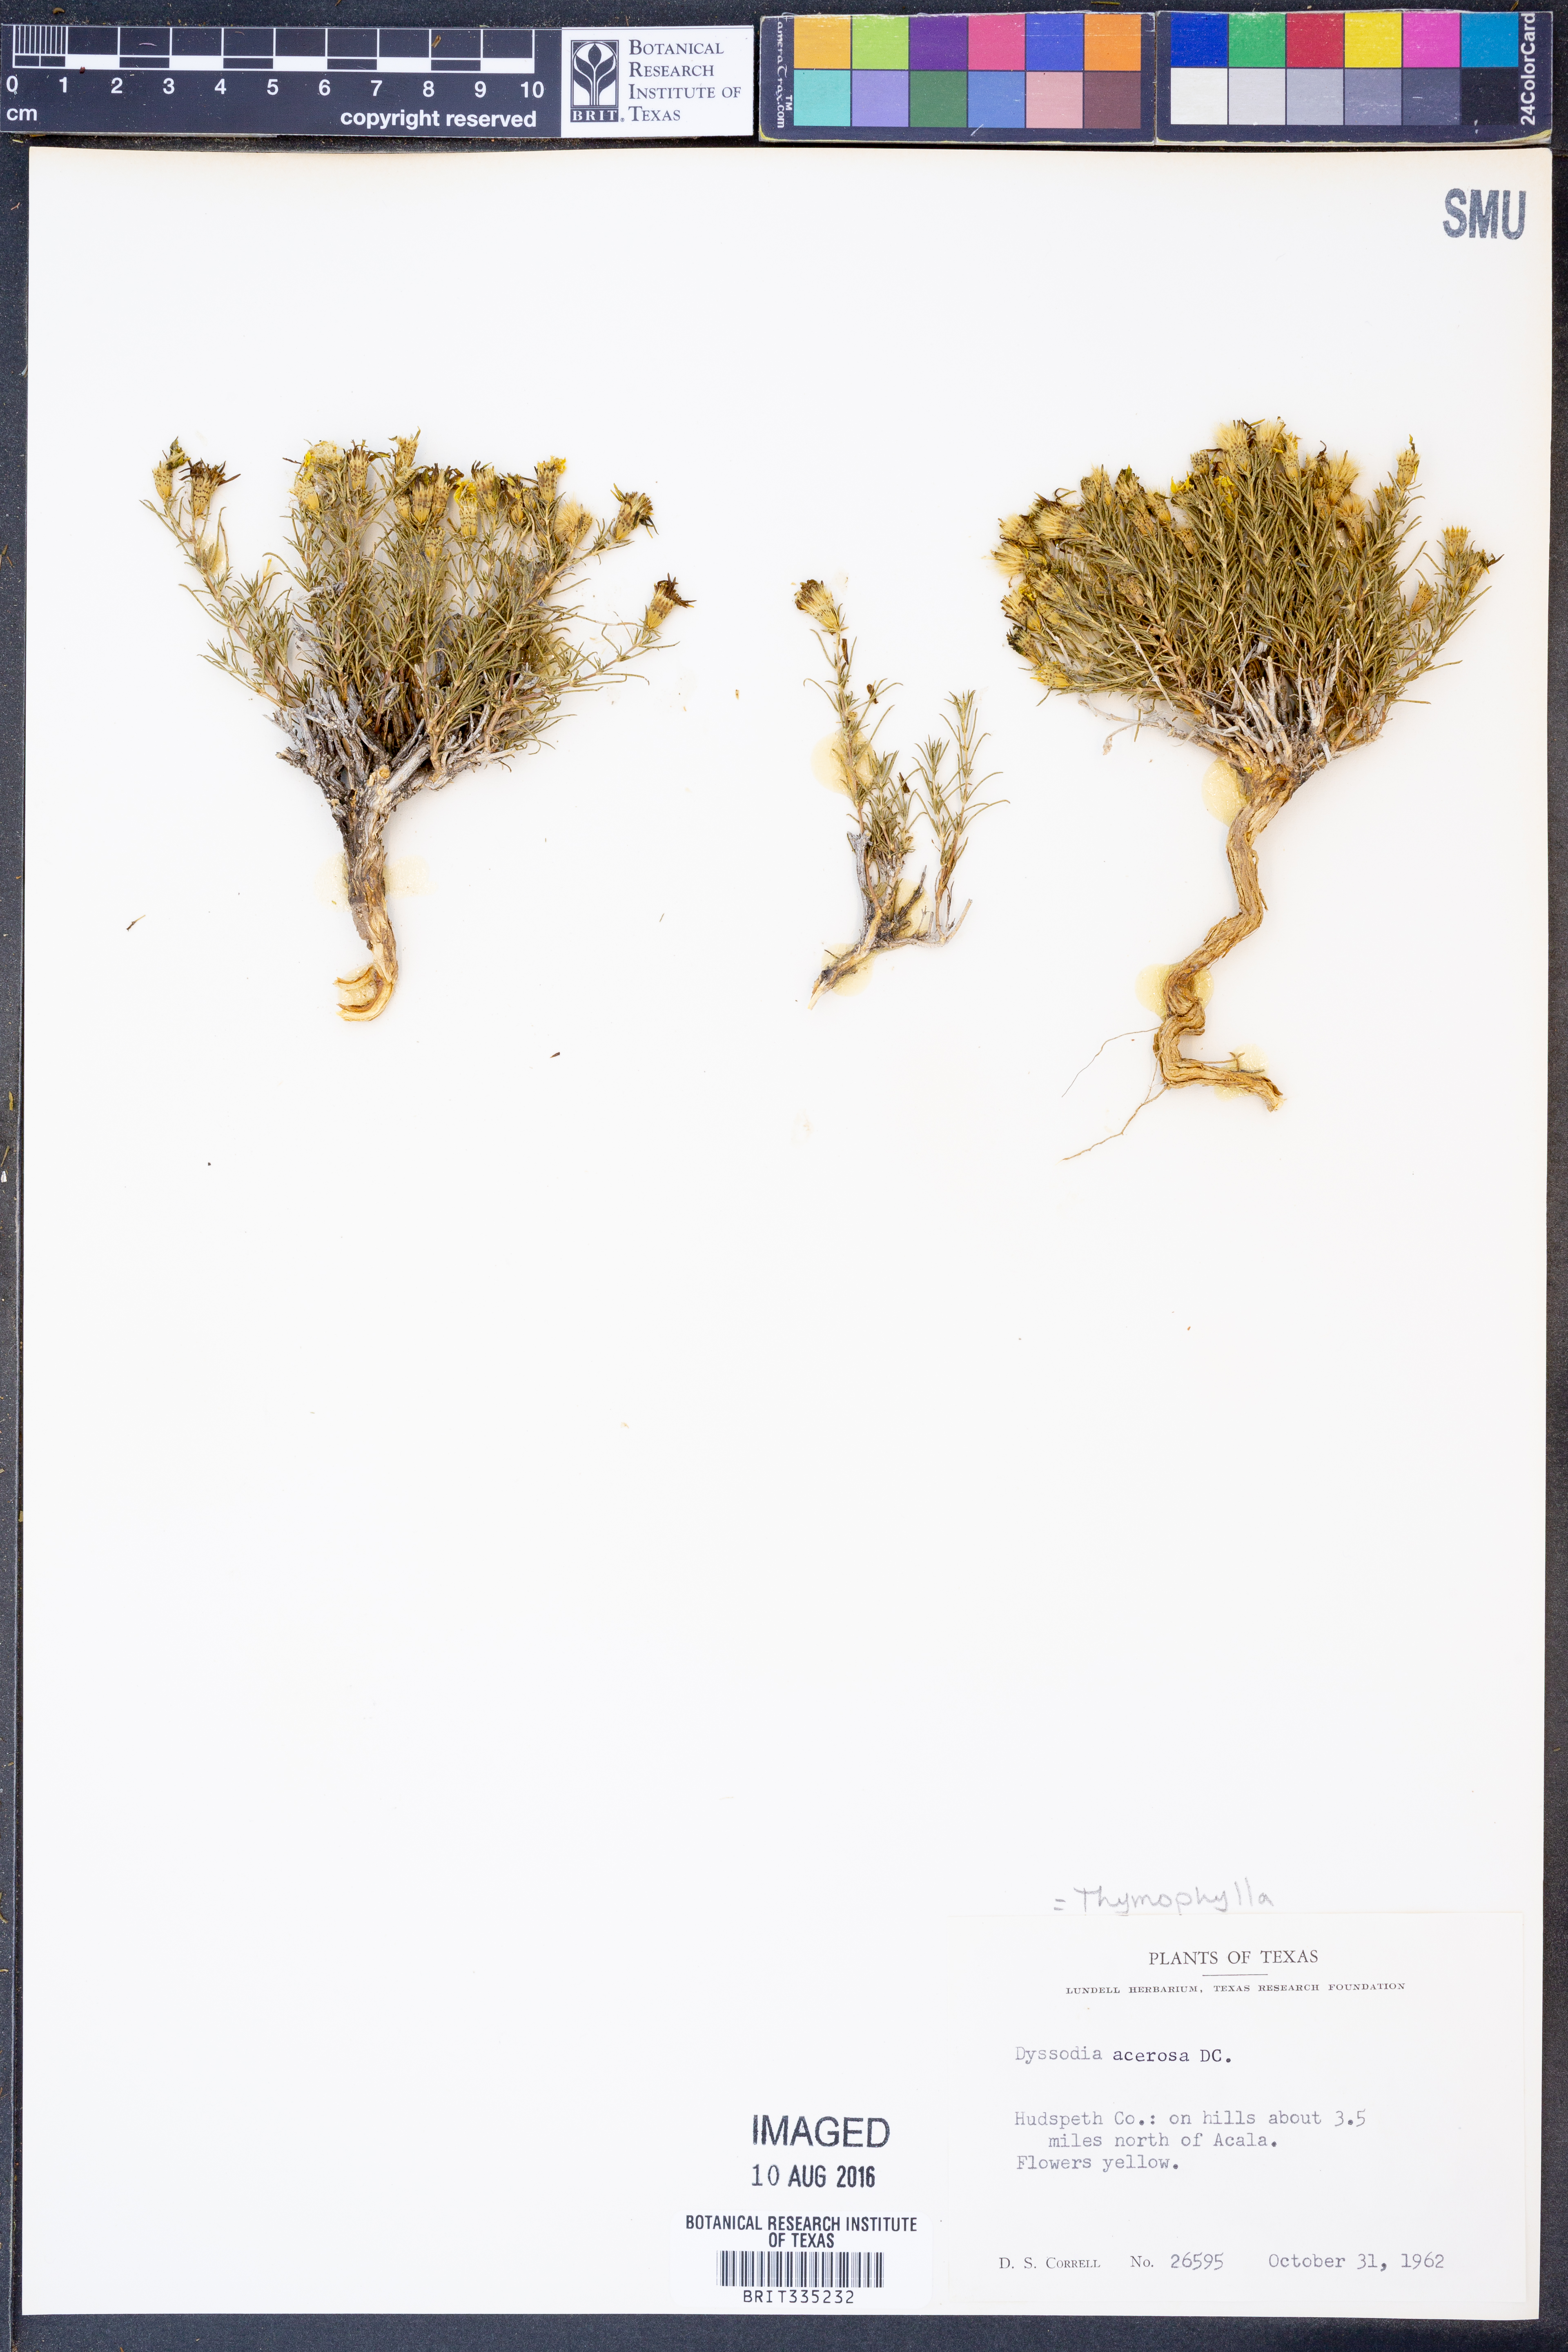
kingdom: Plantae
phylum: Tracheophyta
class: Magnoliopsida
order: Asterales
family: Asteraceae
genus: Thymophylla
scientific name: Thymophylla acerosa
